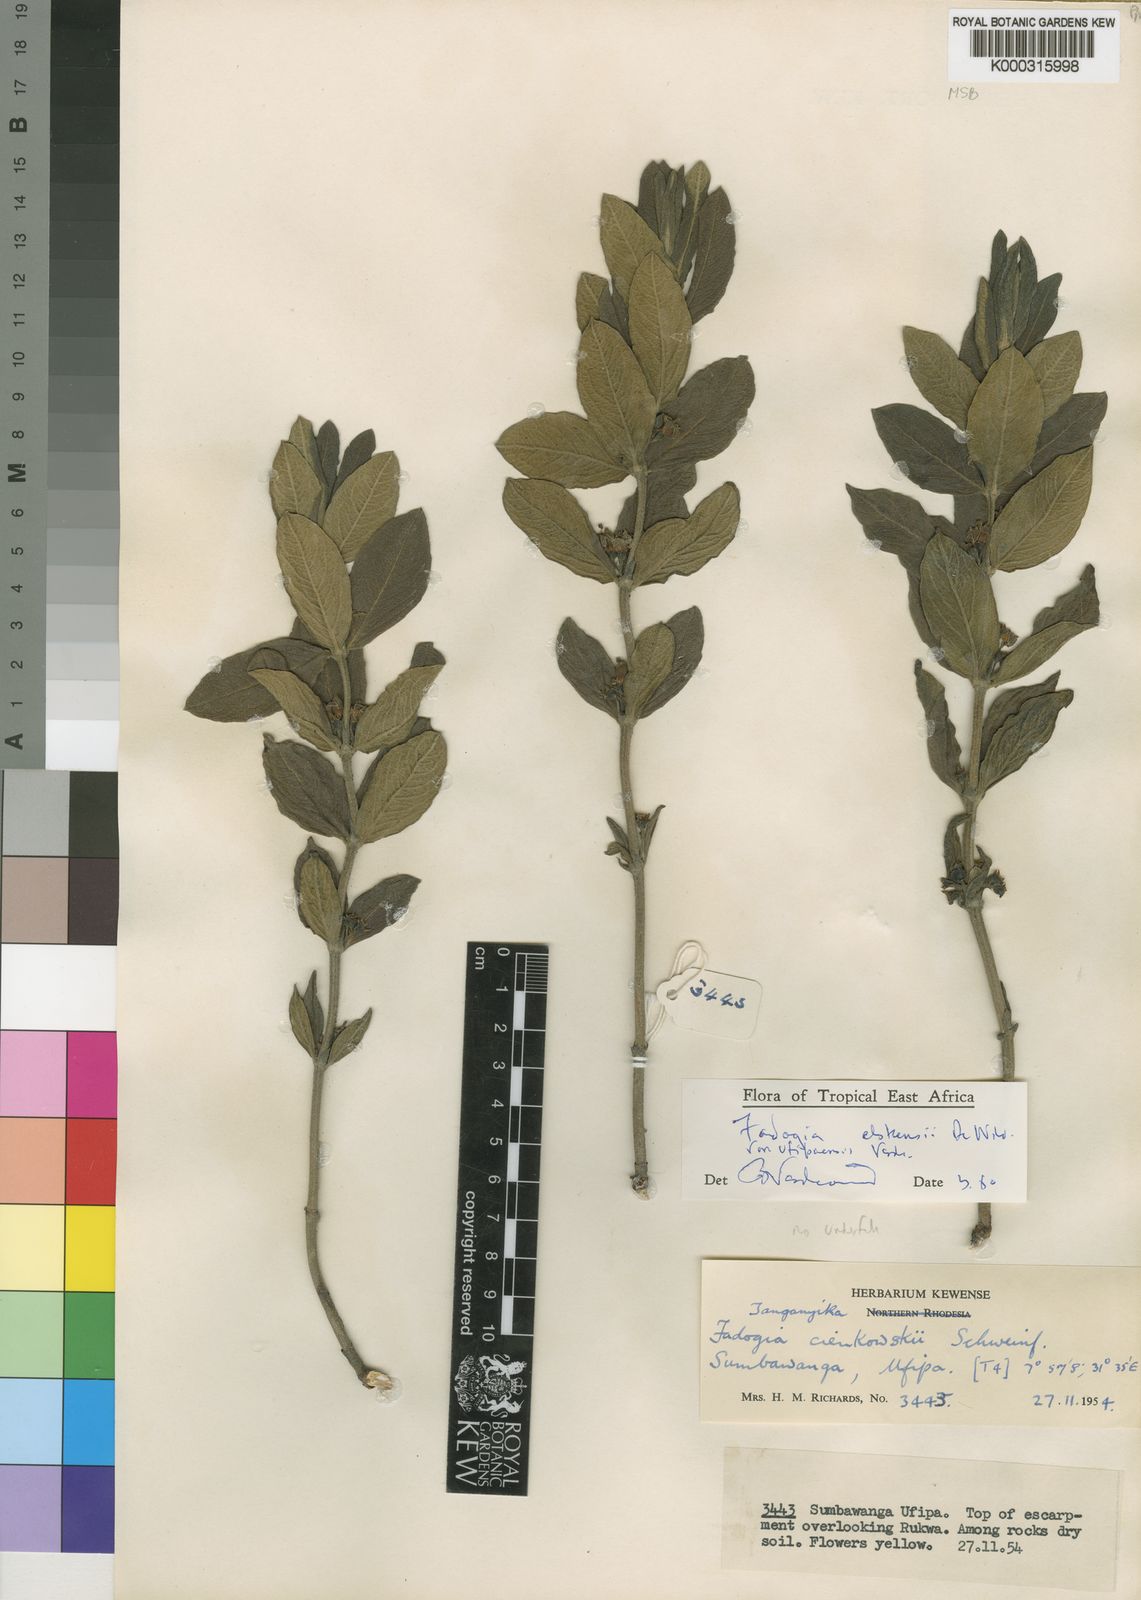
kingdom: Plantae
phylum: Tracheophyta
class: Magnoliopsida
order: Gentianales
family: Rubiaceae
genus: Fadogia
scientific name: Fadogia elskensii
